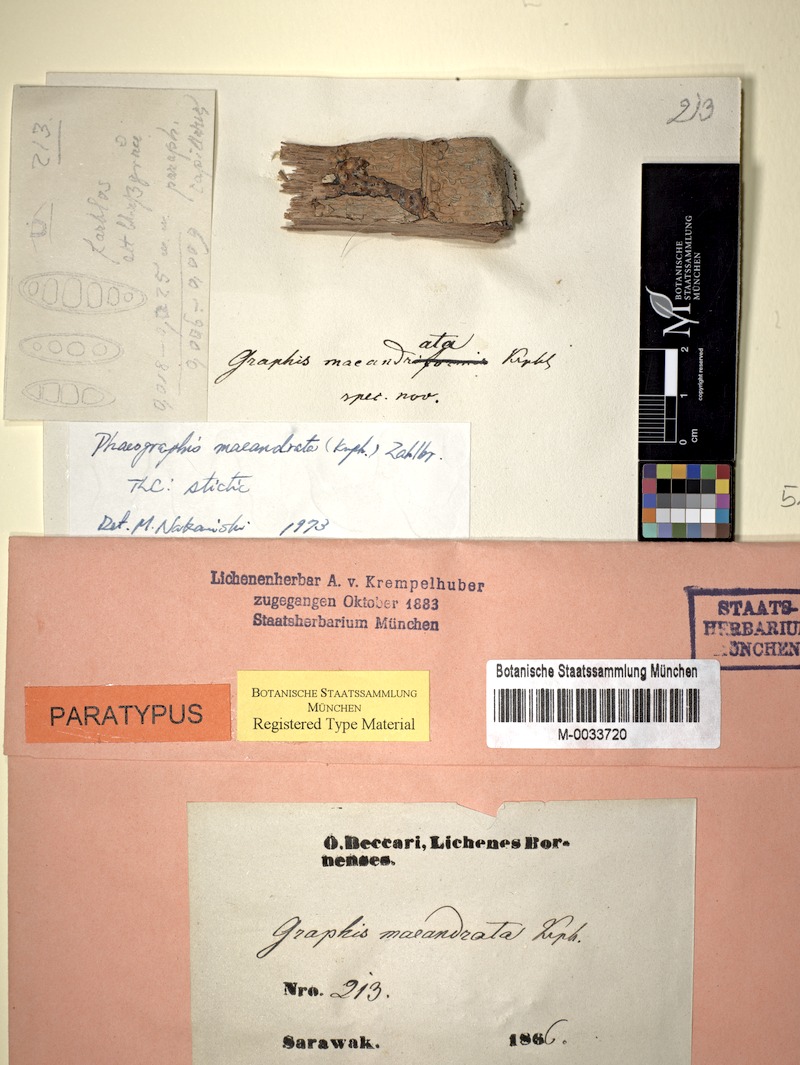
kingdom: Fungi
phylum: Ascomycota
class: Lecanoromycetes
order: Ostropales
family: Graphidaceae
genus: Phaeographis
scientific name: Phaeographis
